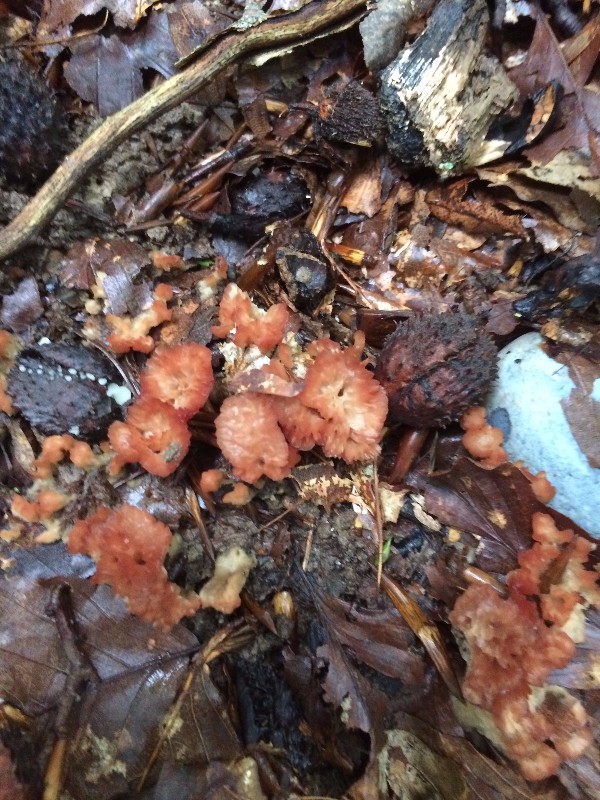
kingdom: Fungi
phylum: Basidiomycota
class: Agaricomycetes
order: Hymenochaetales
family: Rickenellaceae
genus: Cotylidia
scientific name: Cotylidia pannosa
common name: vifte-navlesvamp
